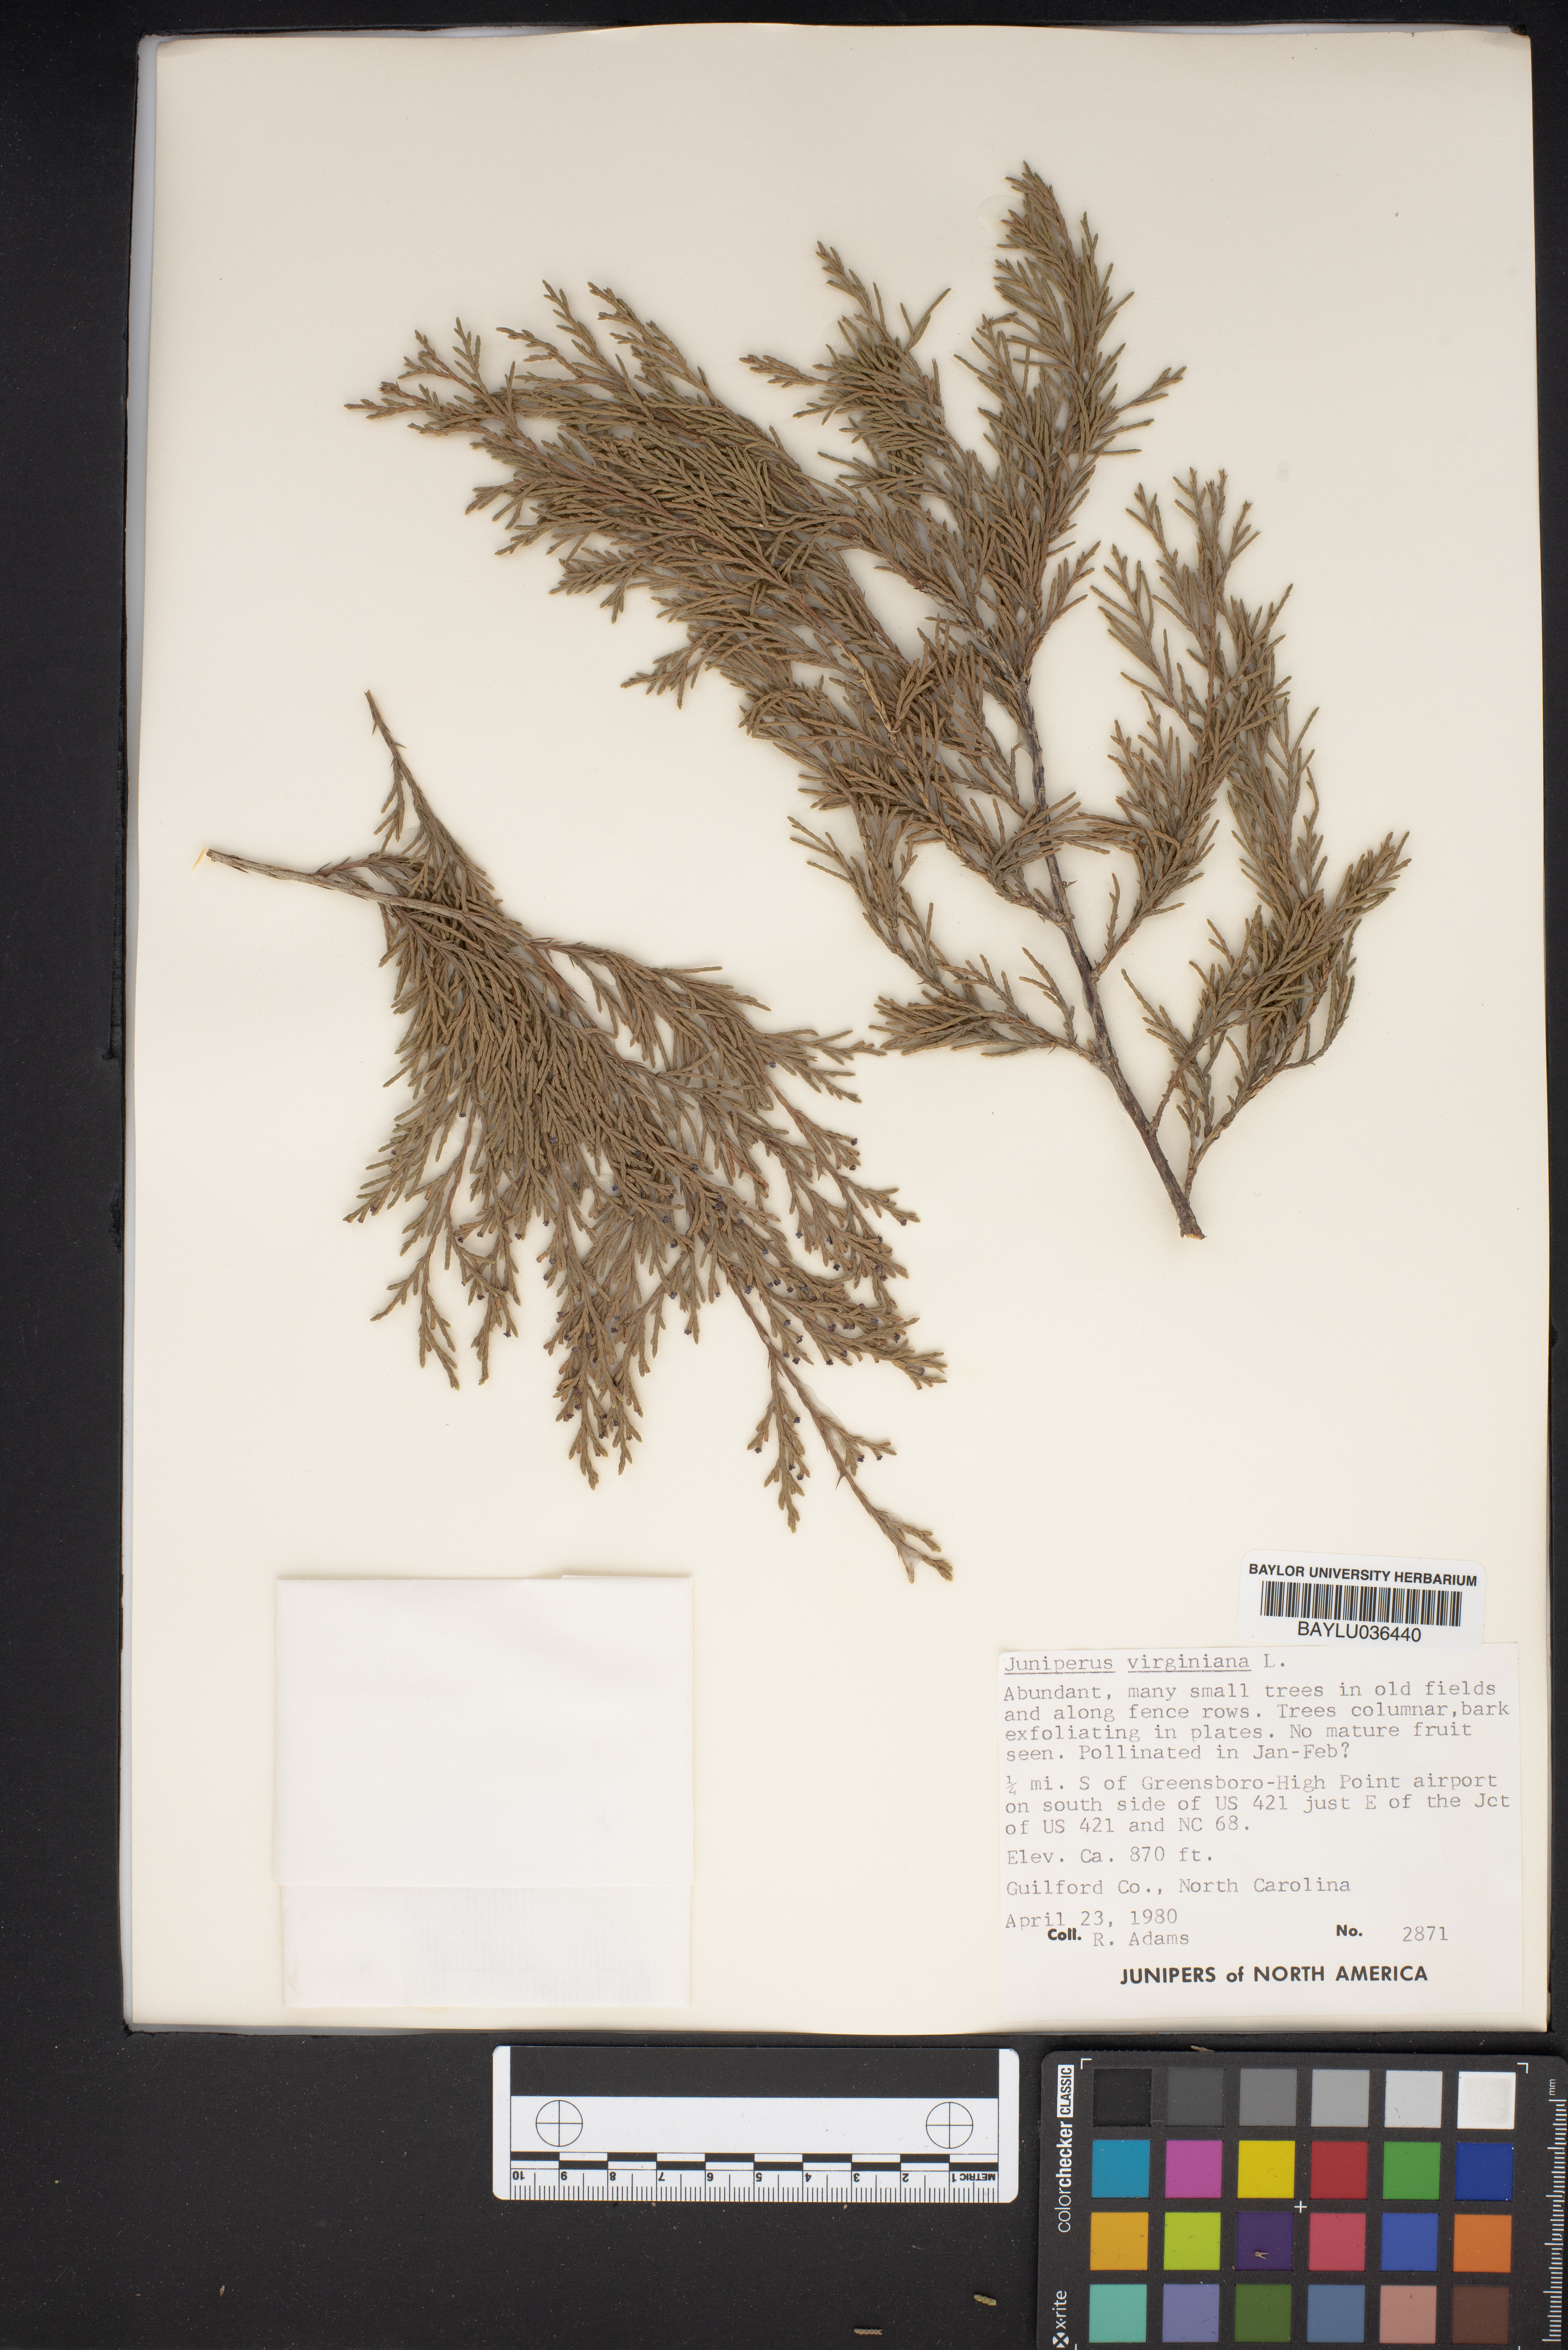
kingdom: Plantae
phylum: Tracheophyta
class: Pinopsida
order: Pinales
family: Cupressaceae
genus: Juniperus
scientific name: Juniperus virginiana
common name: Red juniper
